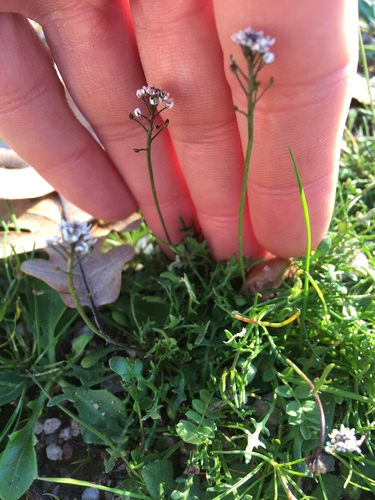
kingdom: Plantae
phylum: Tracheophyta
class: Magnoliopsida
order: Brassicales
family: Brassicaceae
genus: Teesdalia
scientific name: Teesdalia nudicaulis
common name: Shepherd's cress
